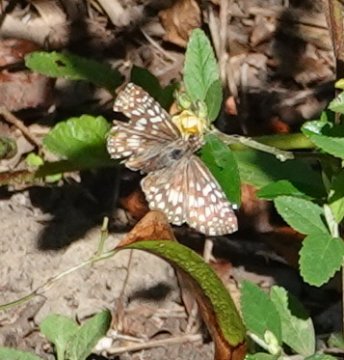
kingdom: Animalia
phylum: Arthropoda
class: Insecta
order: Lepidoptera
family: Hesperiidae
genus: Pyrgus
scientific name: Pyrgus oileus
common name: Tropical Checkered Skipper
